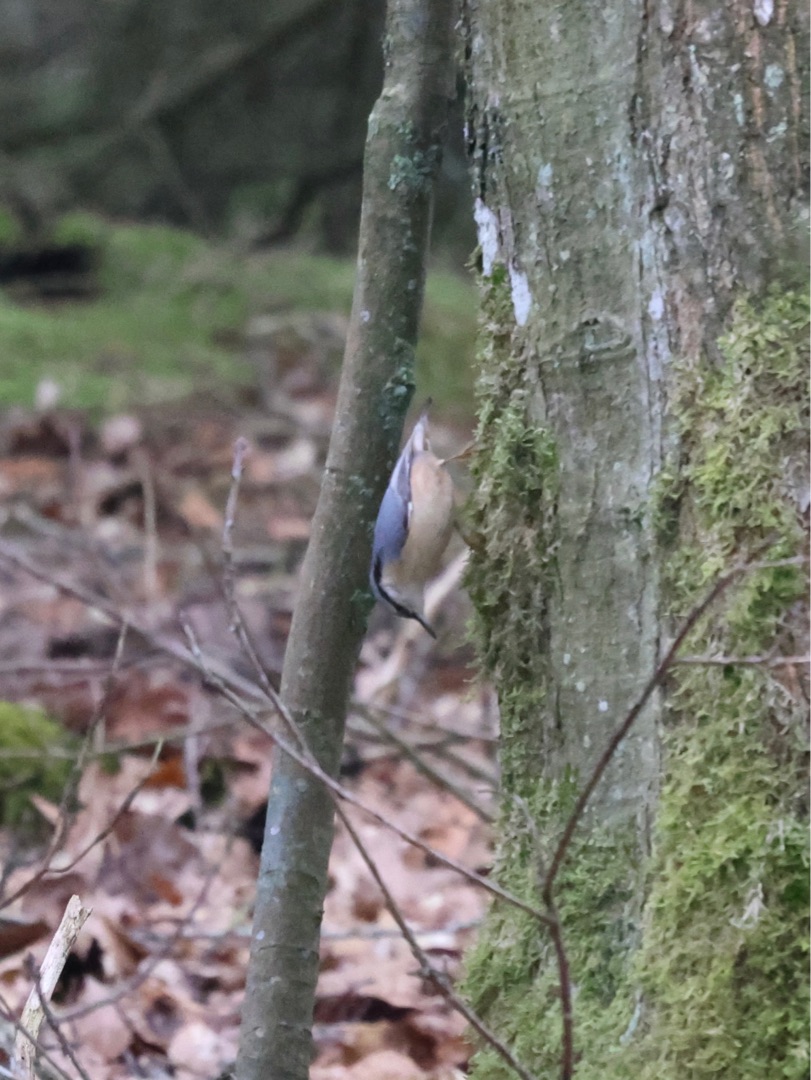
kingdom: Animalia
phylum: Chordata
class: Aves
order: Passeriformes
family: Sittidae
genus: Sitta
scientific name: Sitta europaea
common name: Spætmejse
